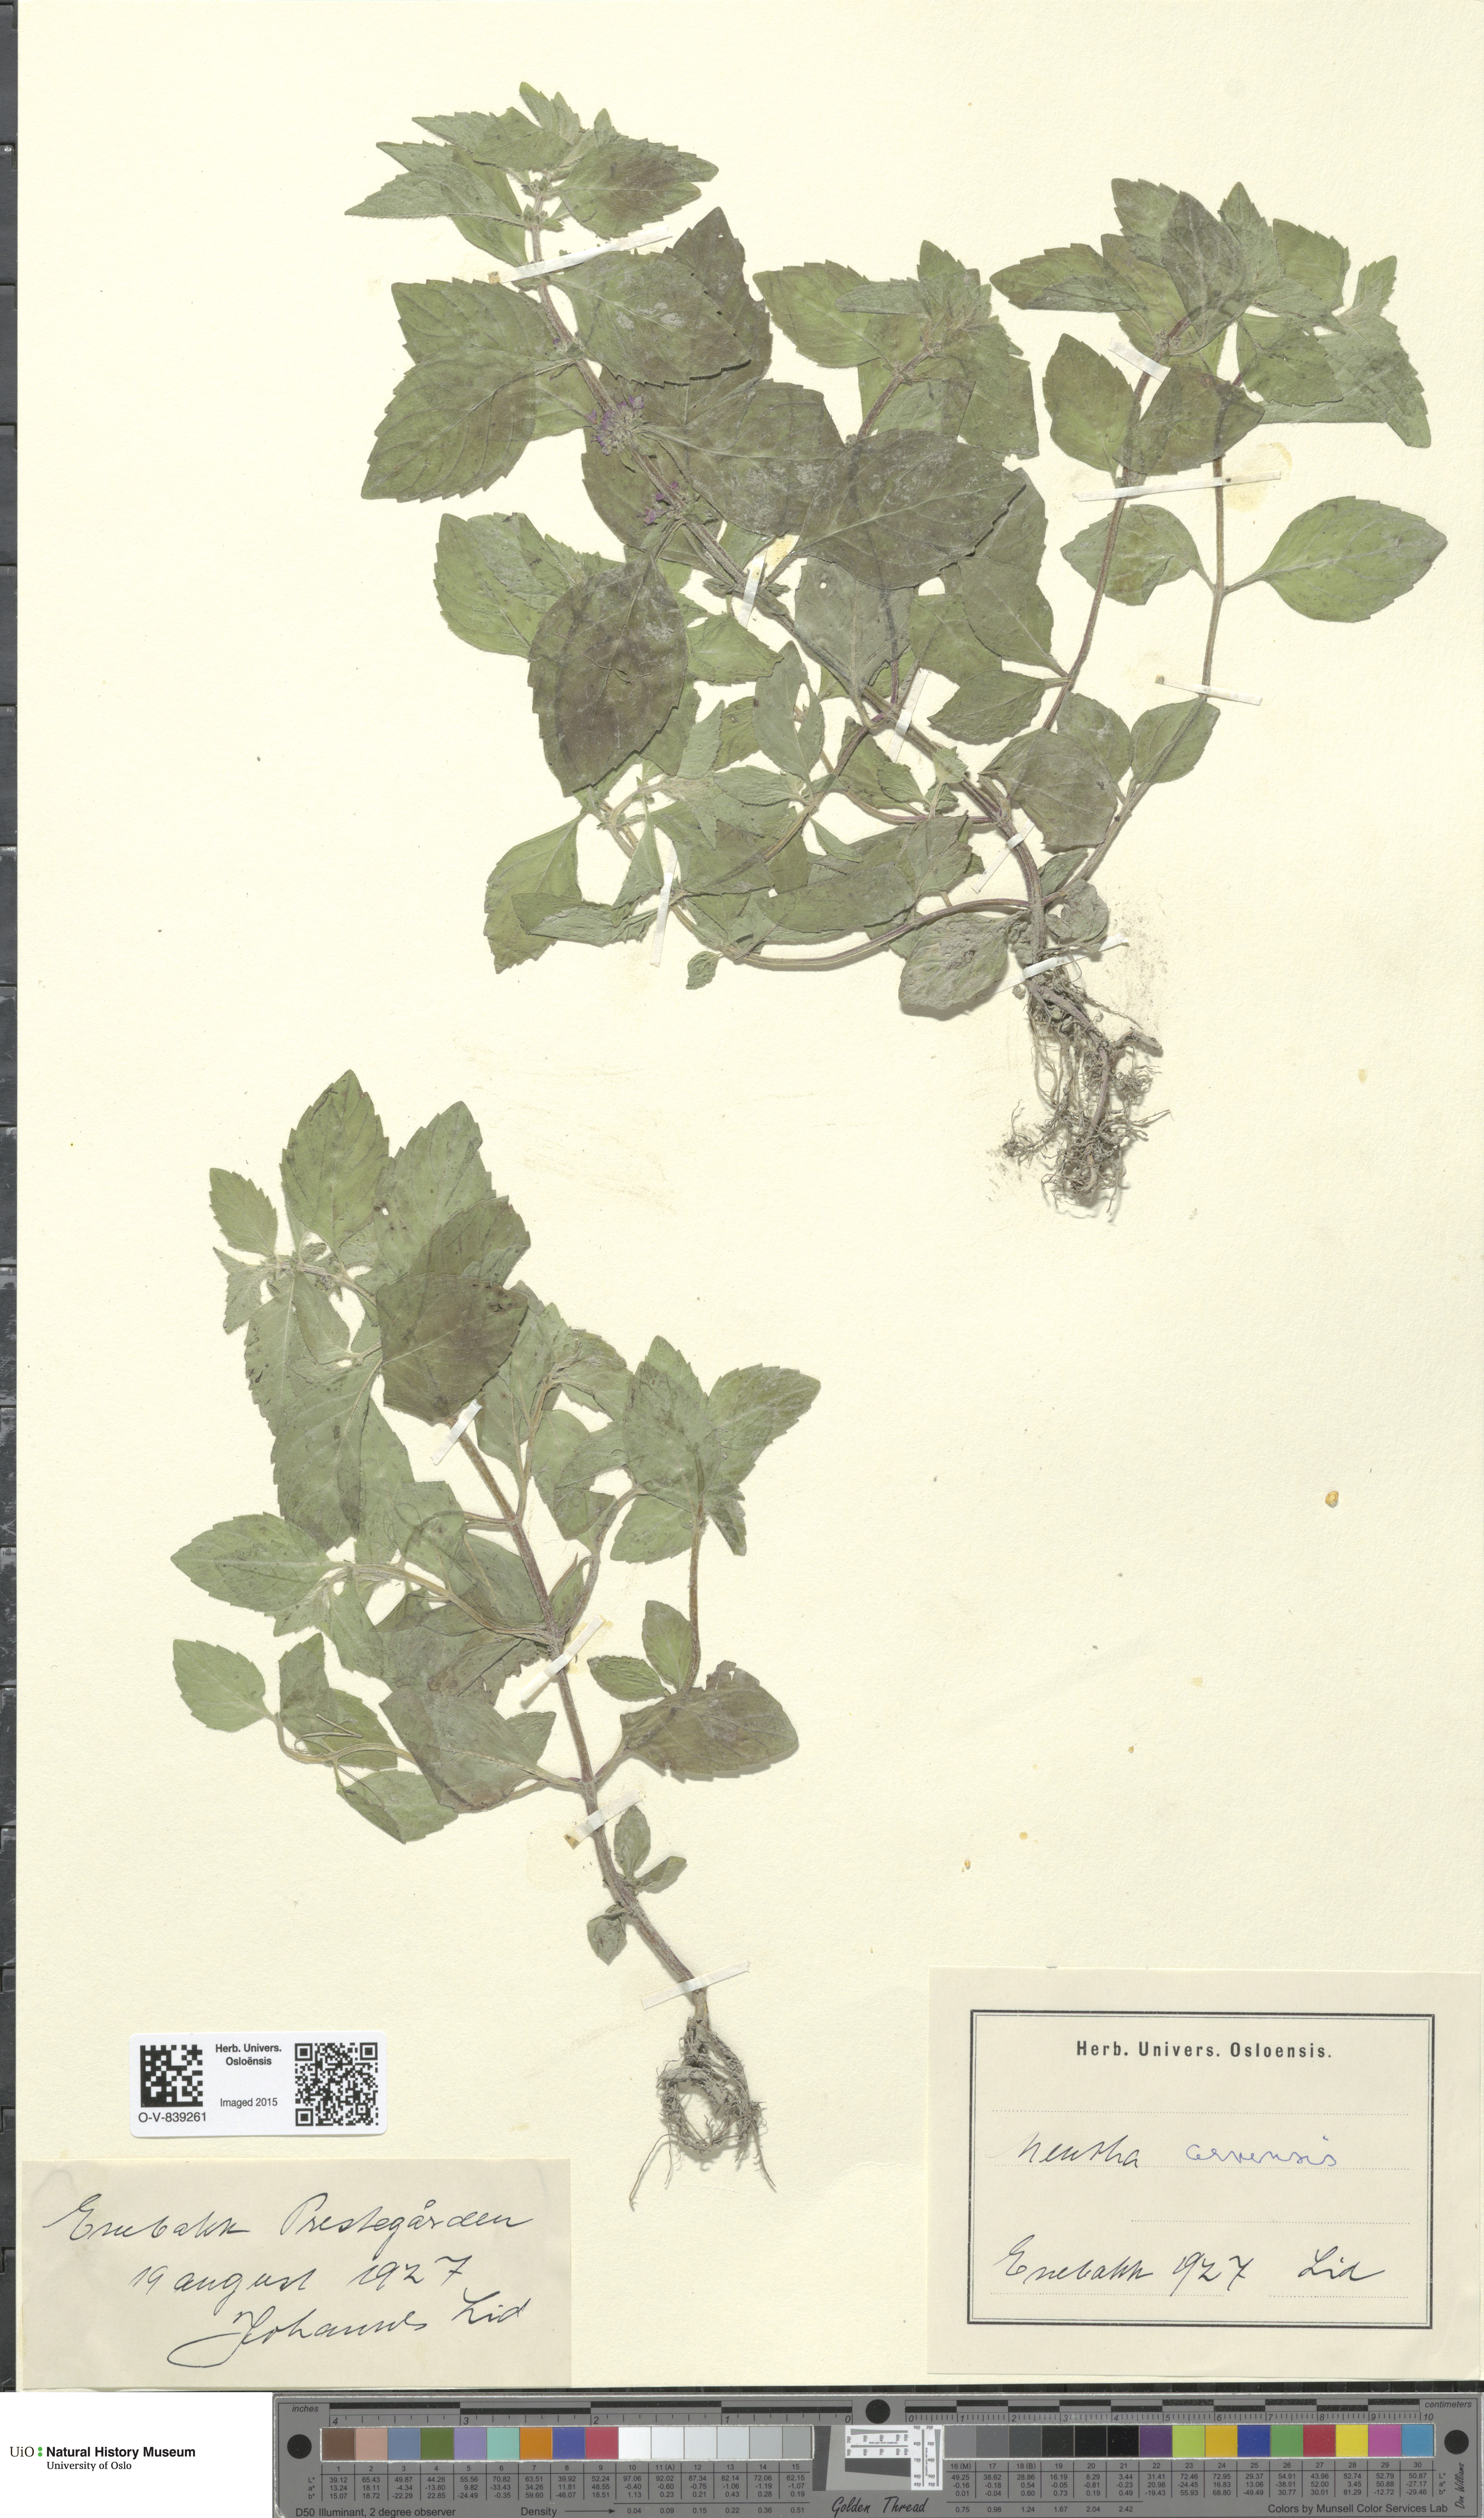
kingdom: Plantae
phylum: Tracheophyta
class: Magnoliopsida
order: Lamiales
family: Lamiaceae
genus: Mentha
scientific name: Mentha arvensis
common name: Corn mint
